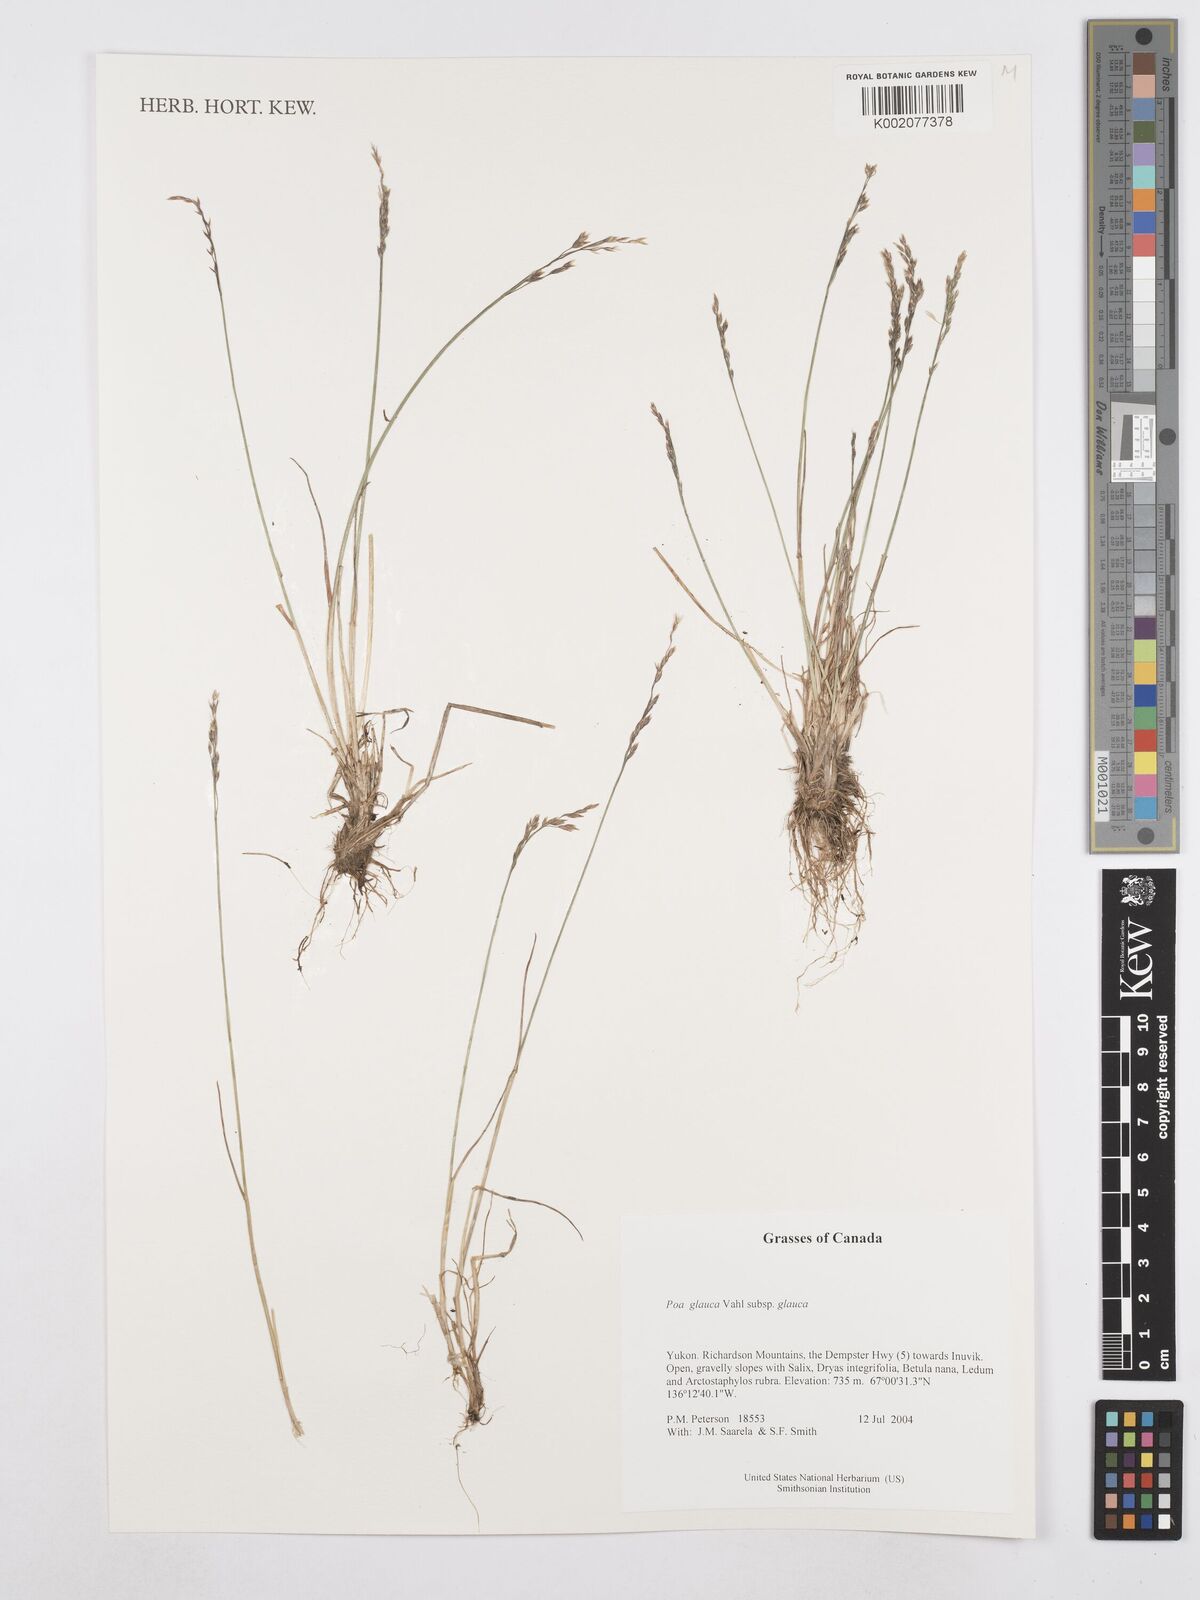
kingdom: Plantae
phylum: Tracheophyta
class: Liliopsida
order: Poales
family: Poaceae
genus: Poa
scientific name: Poa glauca
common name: Glaucous bluegrass
